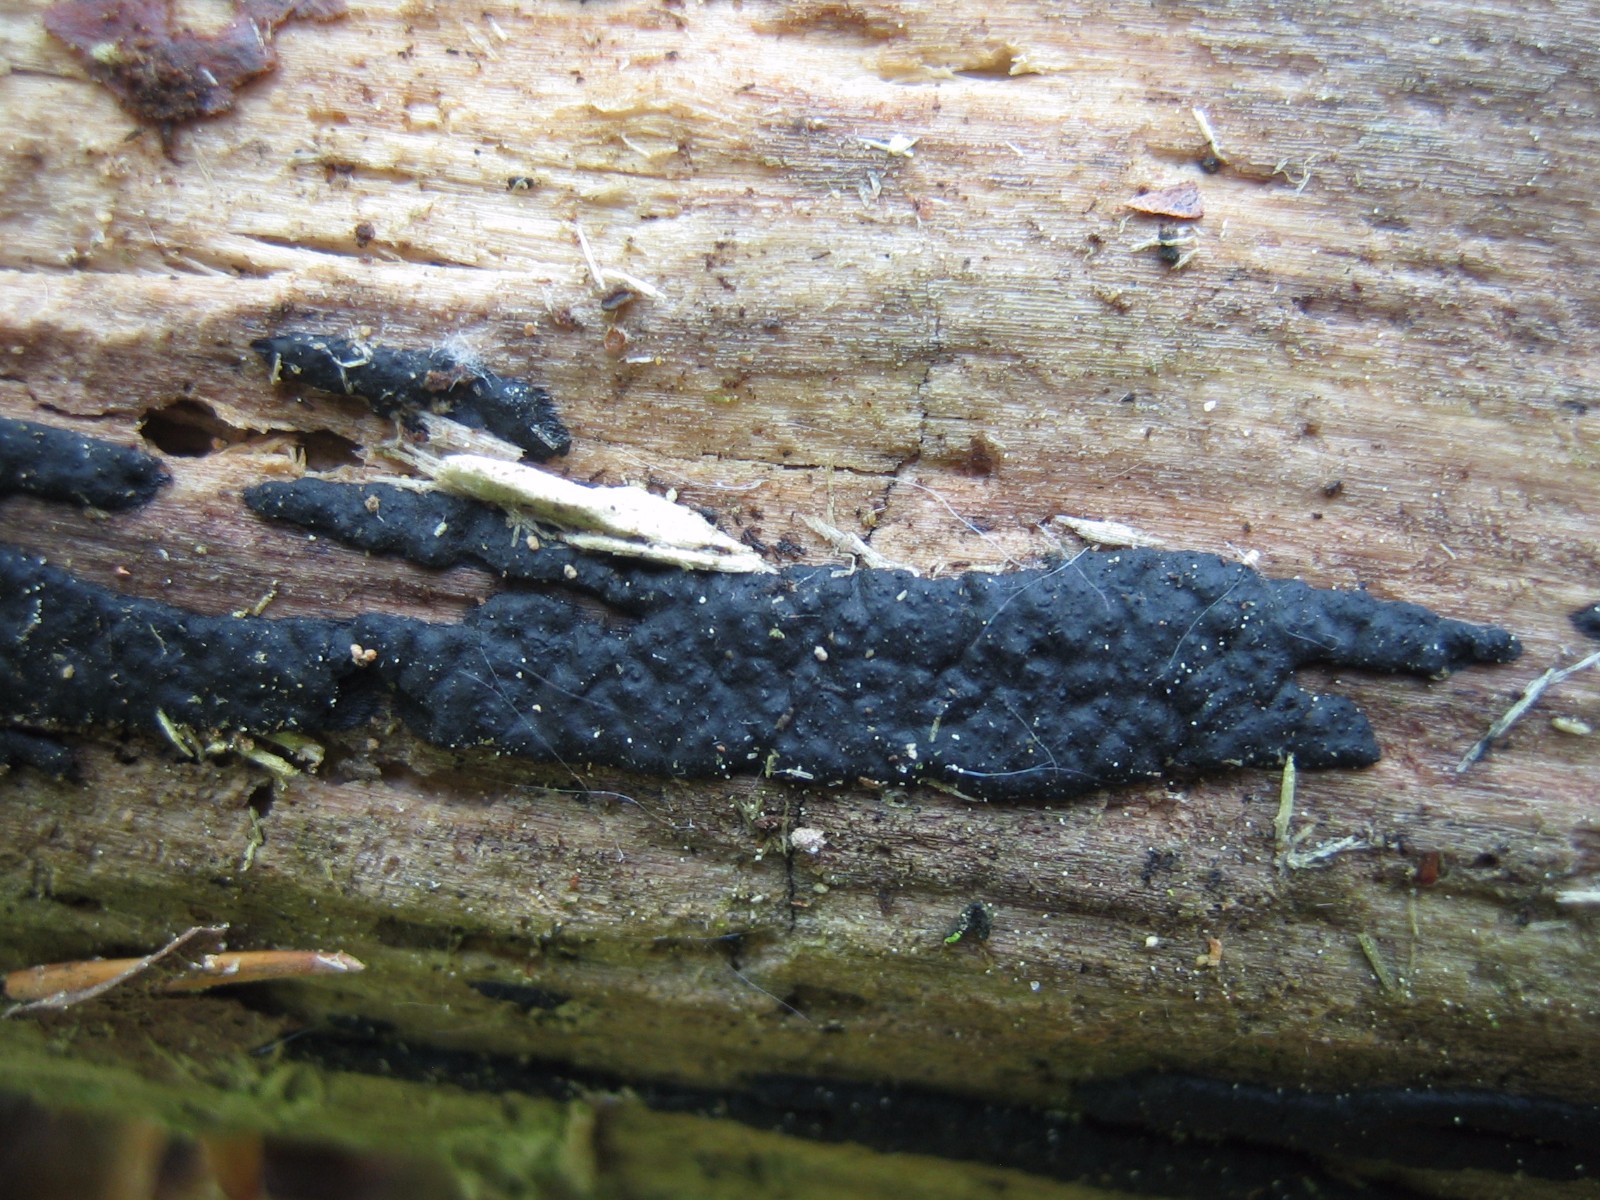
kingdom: Fungi
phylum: Ascomycota
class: Sordariomycetes
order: Xylariales
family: Xylariaceae
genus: Nemania
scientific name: Nemania
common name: kuldyne
